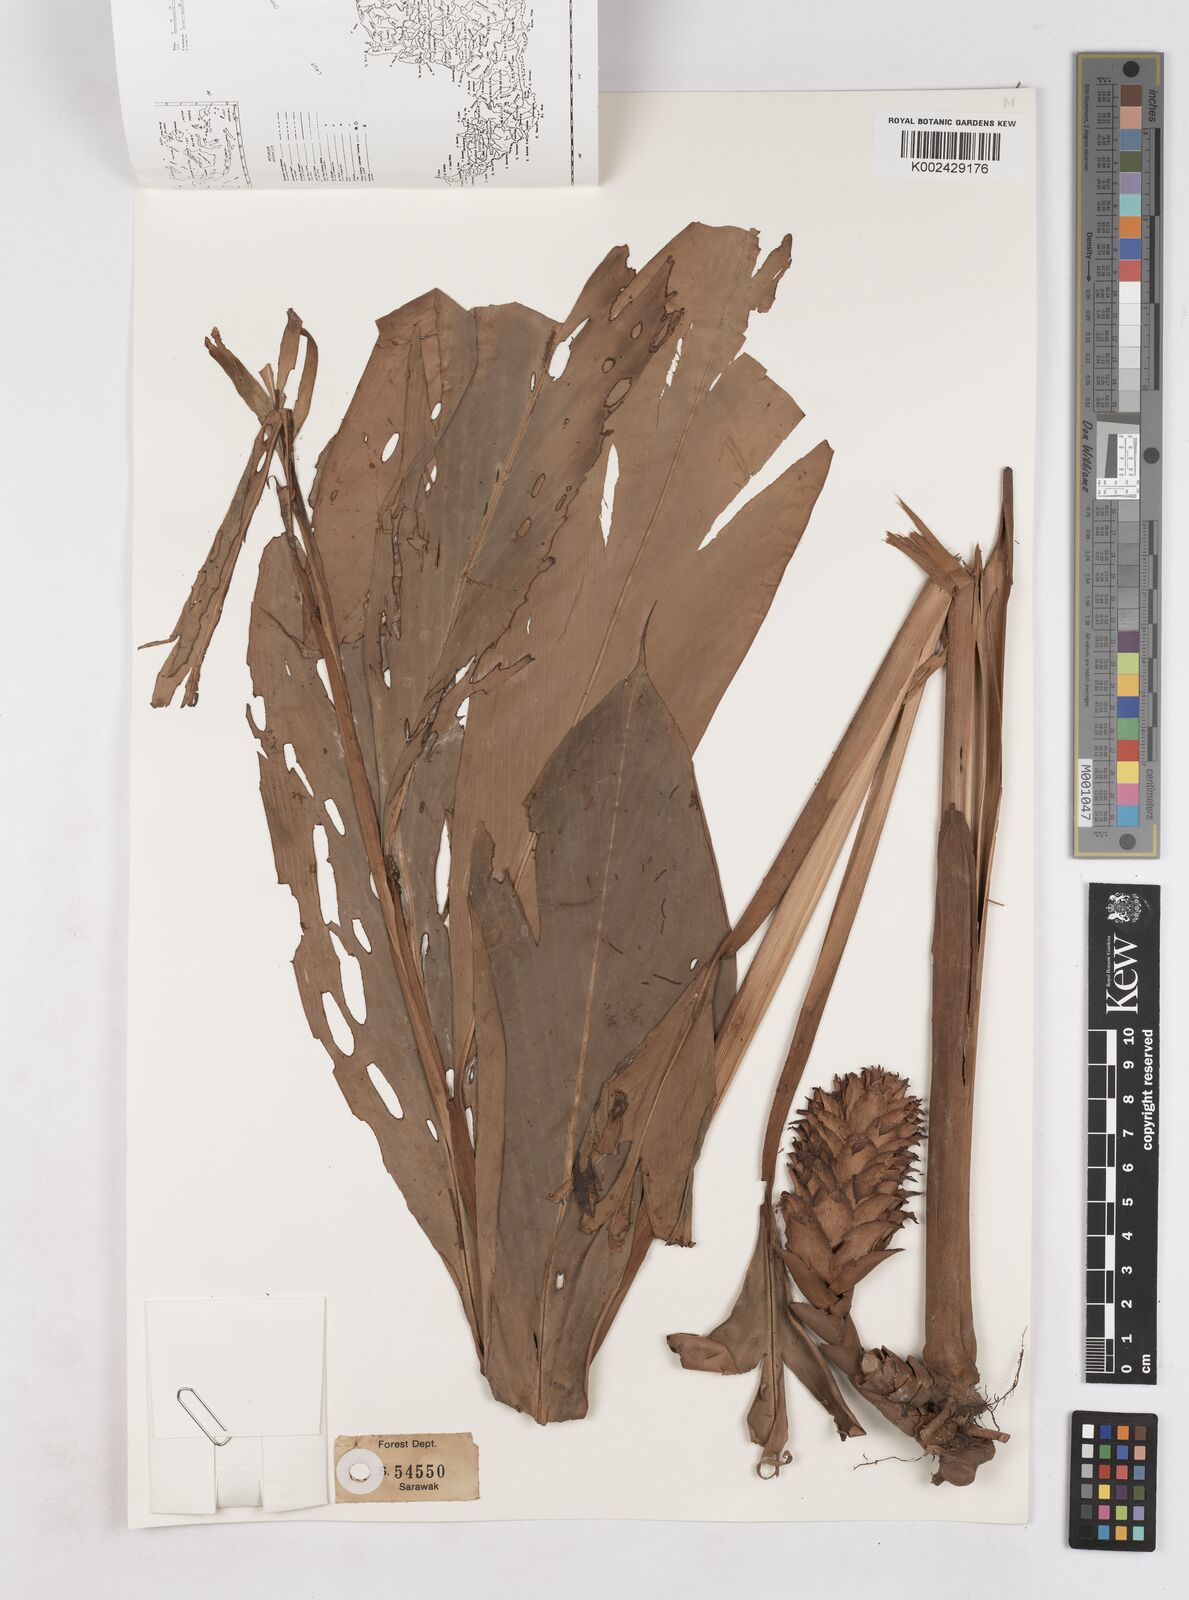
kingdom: Plantae
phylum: Tracheophyta
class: Liliopsida
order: Zingiberales
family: Zingiberaceae
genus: Zingiber
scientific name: Zingiber
